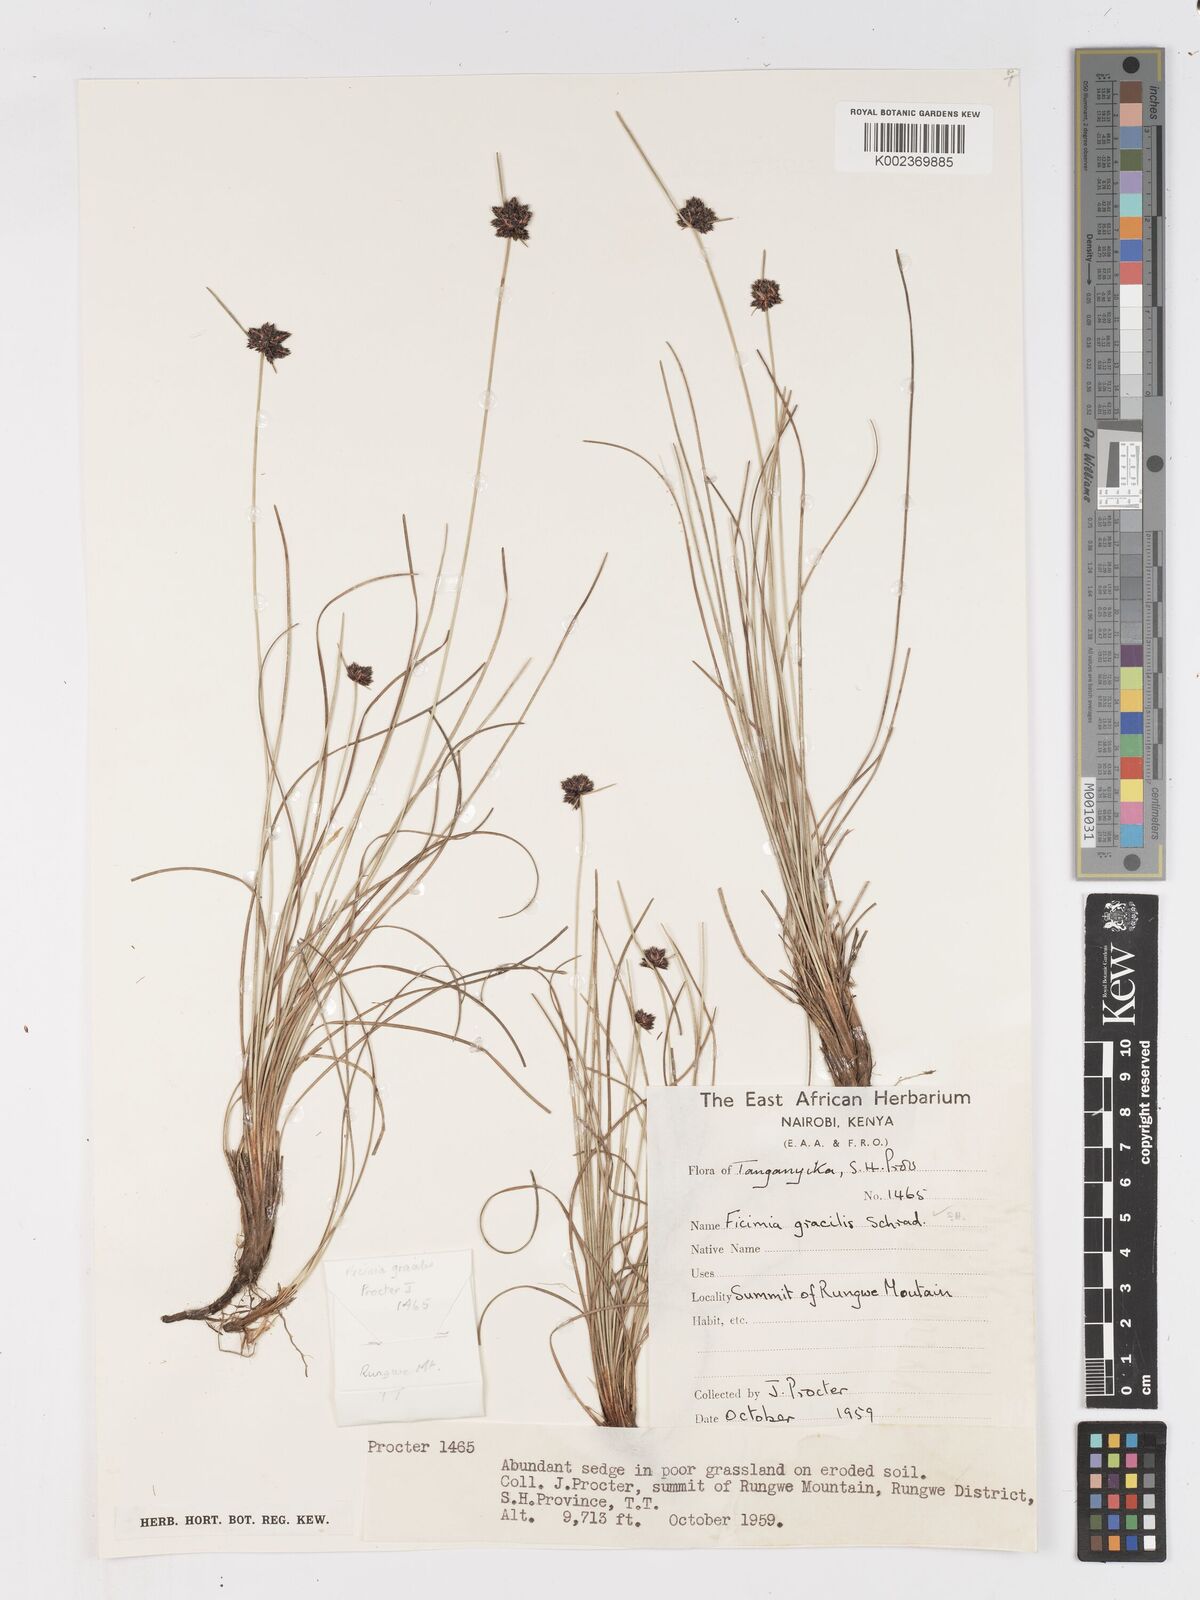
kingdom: Plantae
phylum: Tracheophyta
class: Liliopsida
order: Poales
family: Cyperaceae
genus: Ficinia
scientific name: Ficinia gracilis
